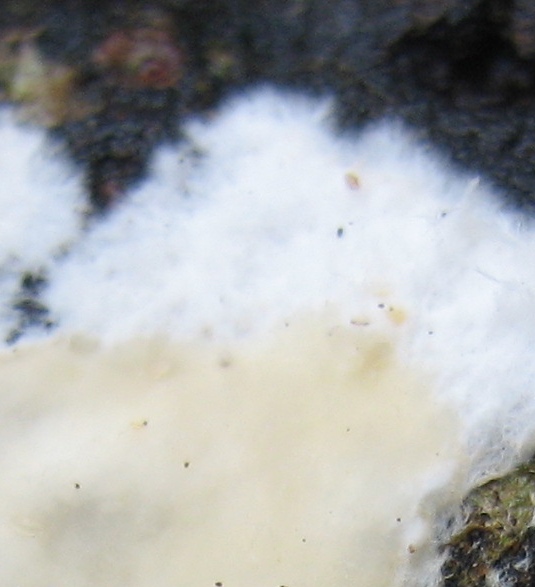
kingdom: Fungi
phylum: Basidiomycota
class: Agaricomycetes
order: Corticiales
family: Corticiaceae
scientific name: Corticiaceae
